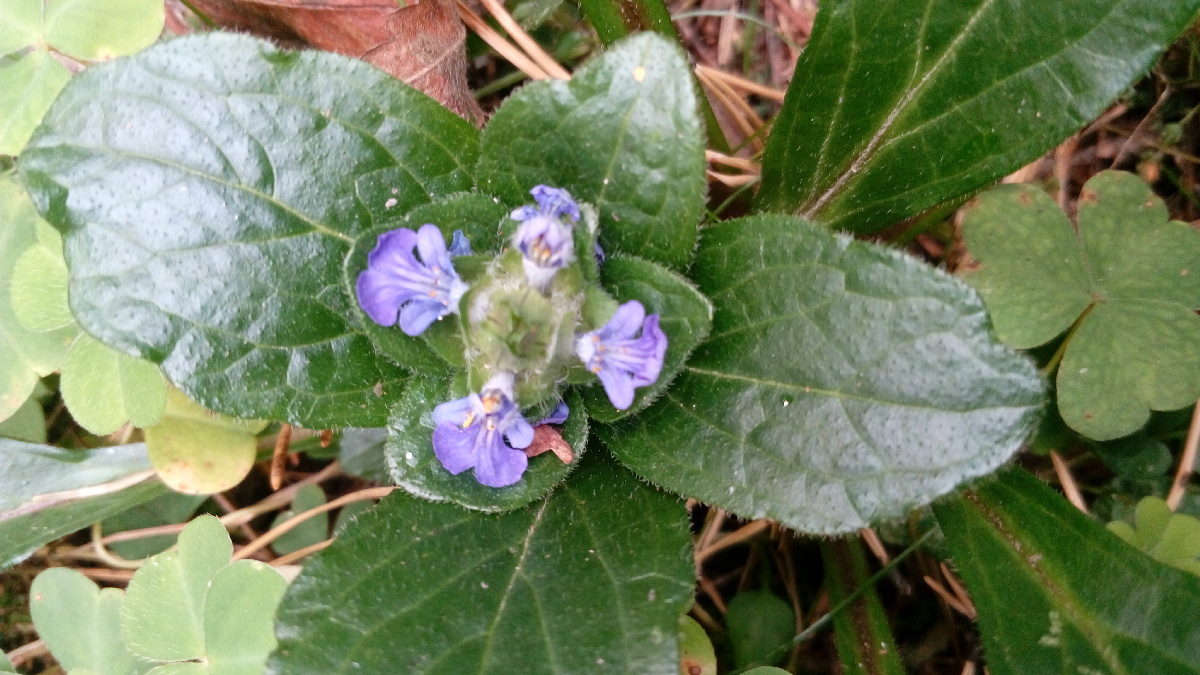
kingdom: Plantae
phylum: Tracheophyta
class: Magnoliopsida
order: Lamiales
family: Lamiaceae
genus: Ajuga
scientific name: Ajuga reptans
